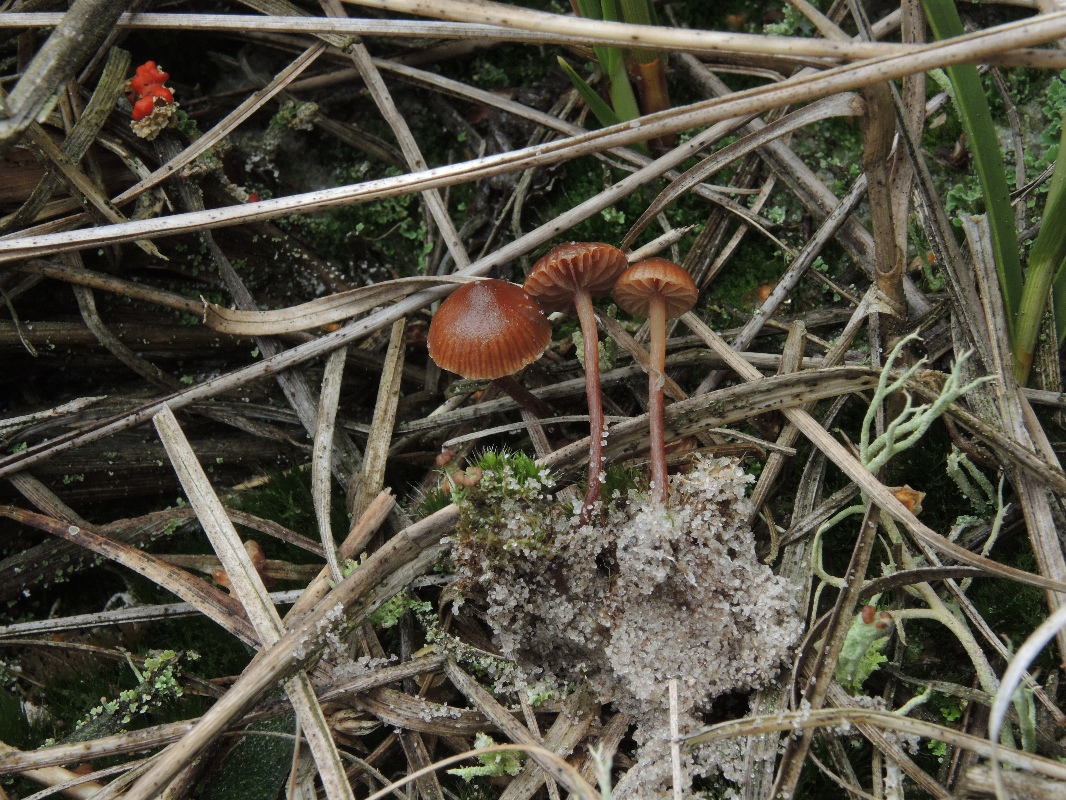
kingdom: Fungi
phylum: Basidiomycota
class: Agaricomycetes
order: Agaricales
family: Strophariaceae
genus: Deconica
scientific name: Deconica montana
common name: rødbrun stråhat
